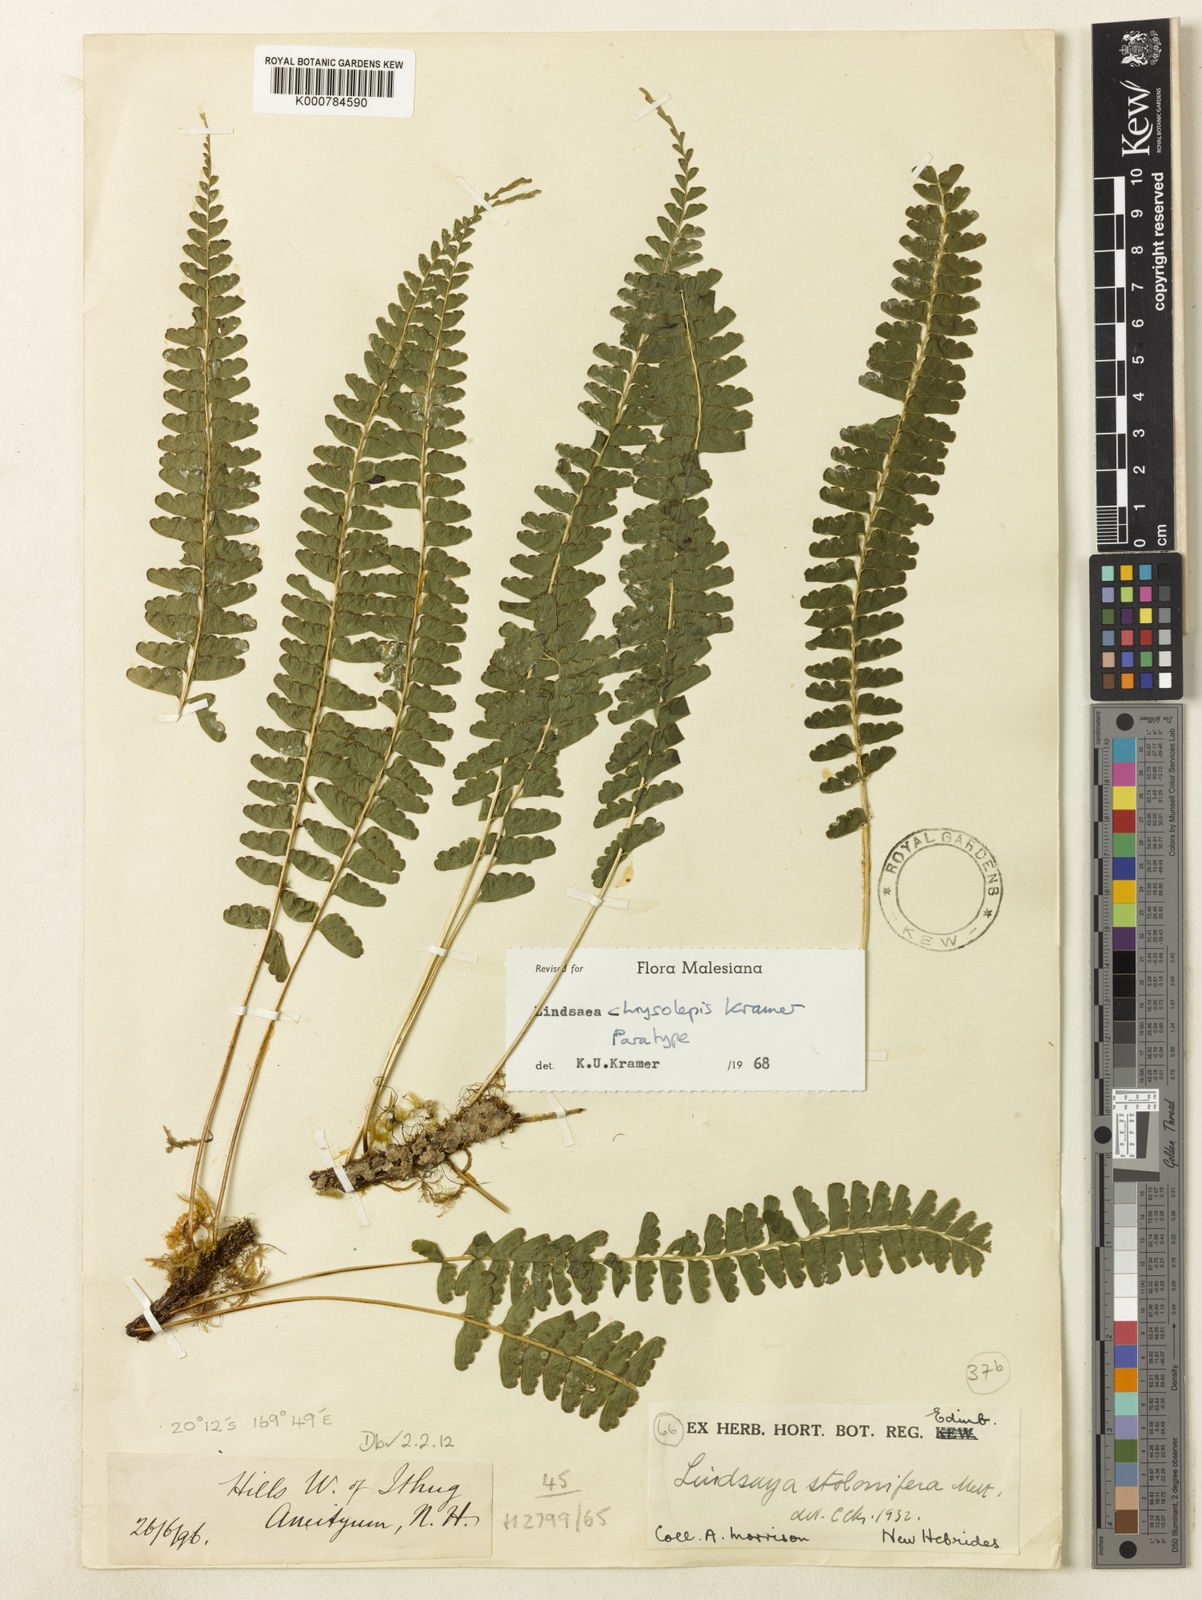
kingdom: Plantae
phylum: Tracheophyta
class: Polypodiopsida
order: Polypodiales
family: Lindsaeaceae
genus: Lindsaea
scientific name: Lindsaea chrysolepis
